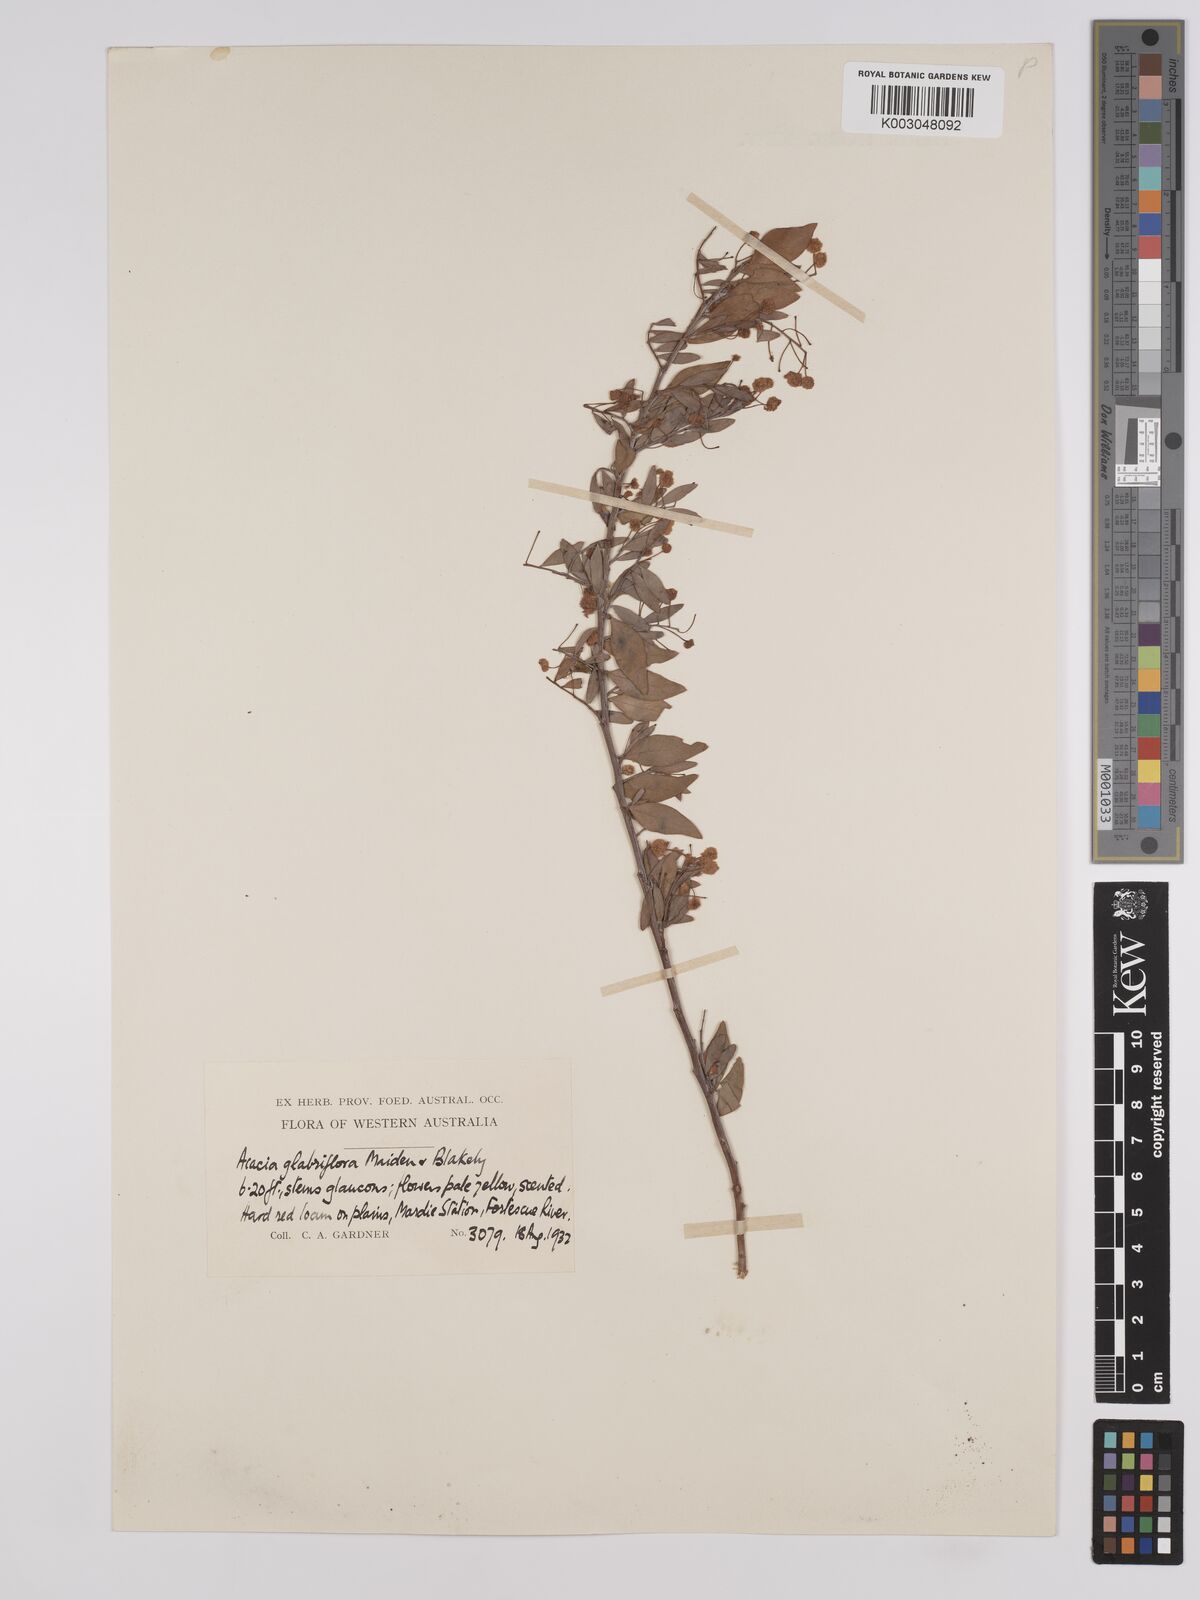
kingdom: Plantae
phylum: Tracheophyta
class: Magnoliopsida
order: Fabales
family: Fabaceae
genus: Acacia
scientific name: Acacia glaucocaesia
